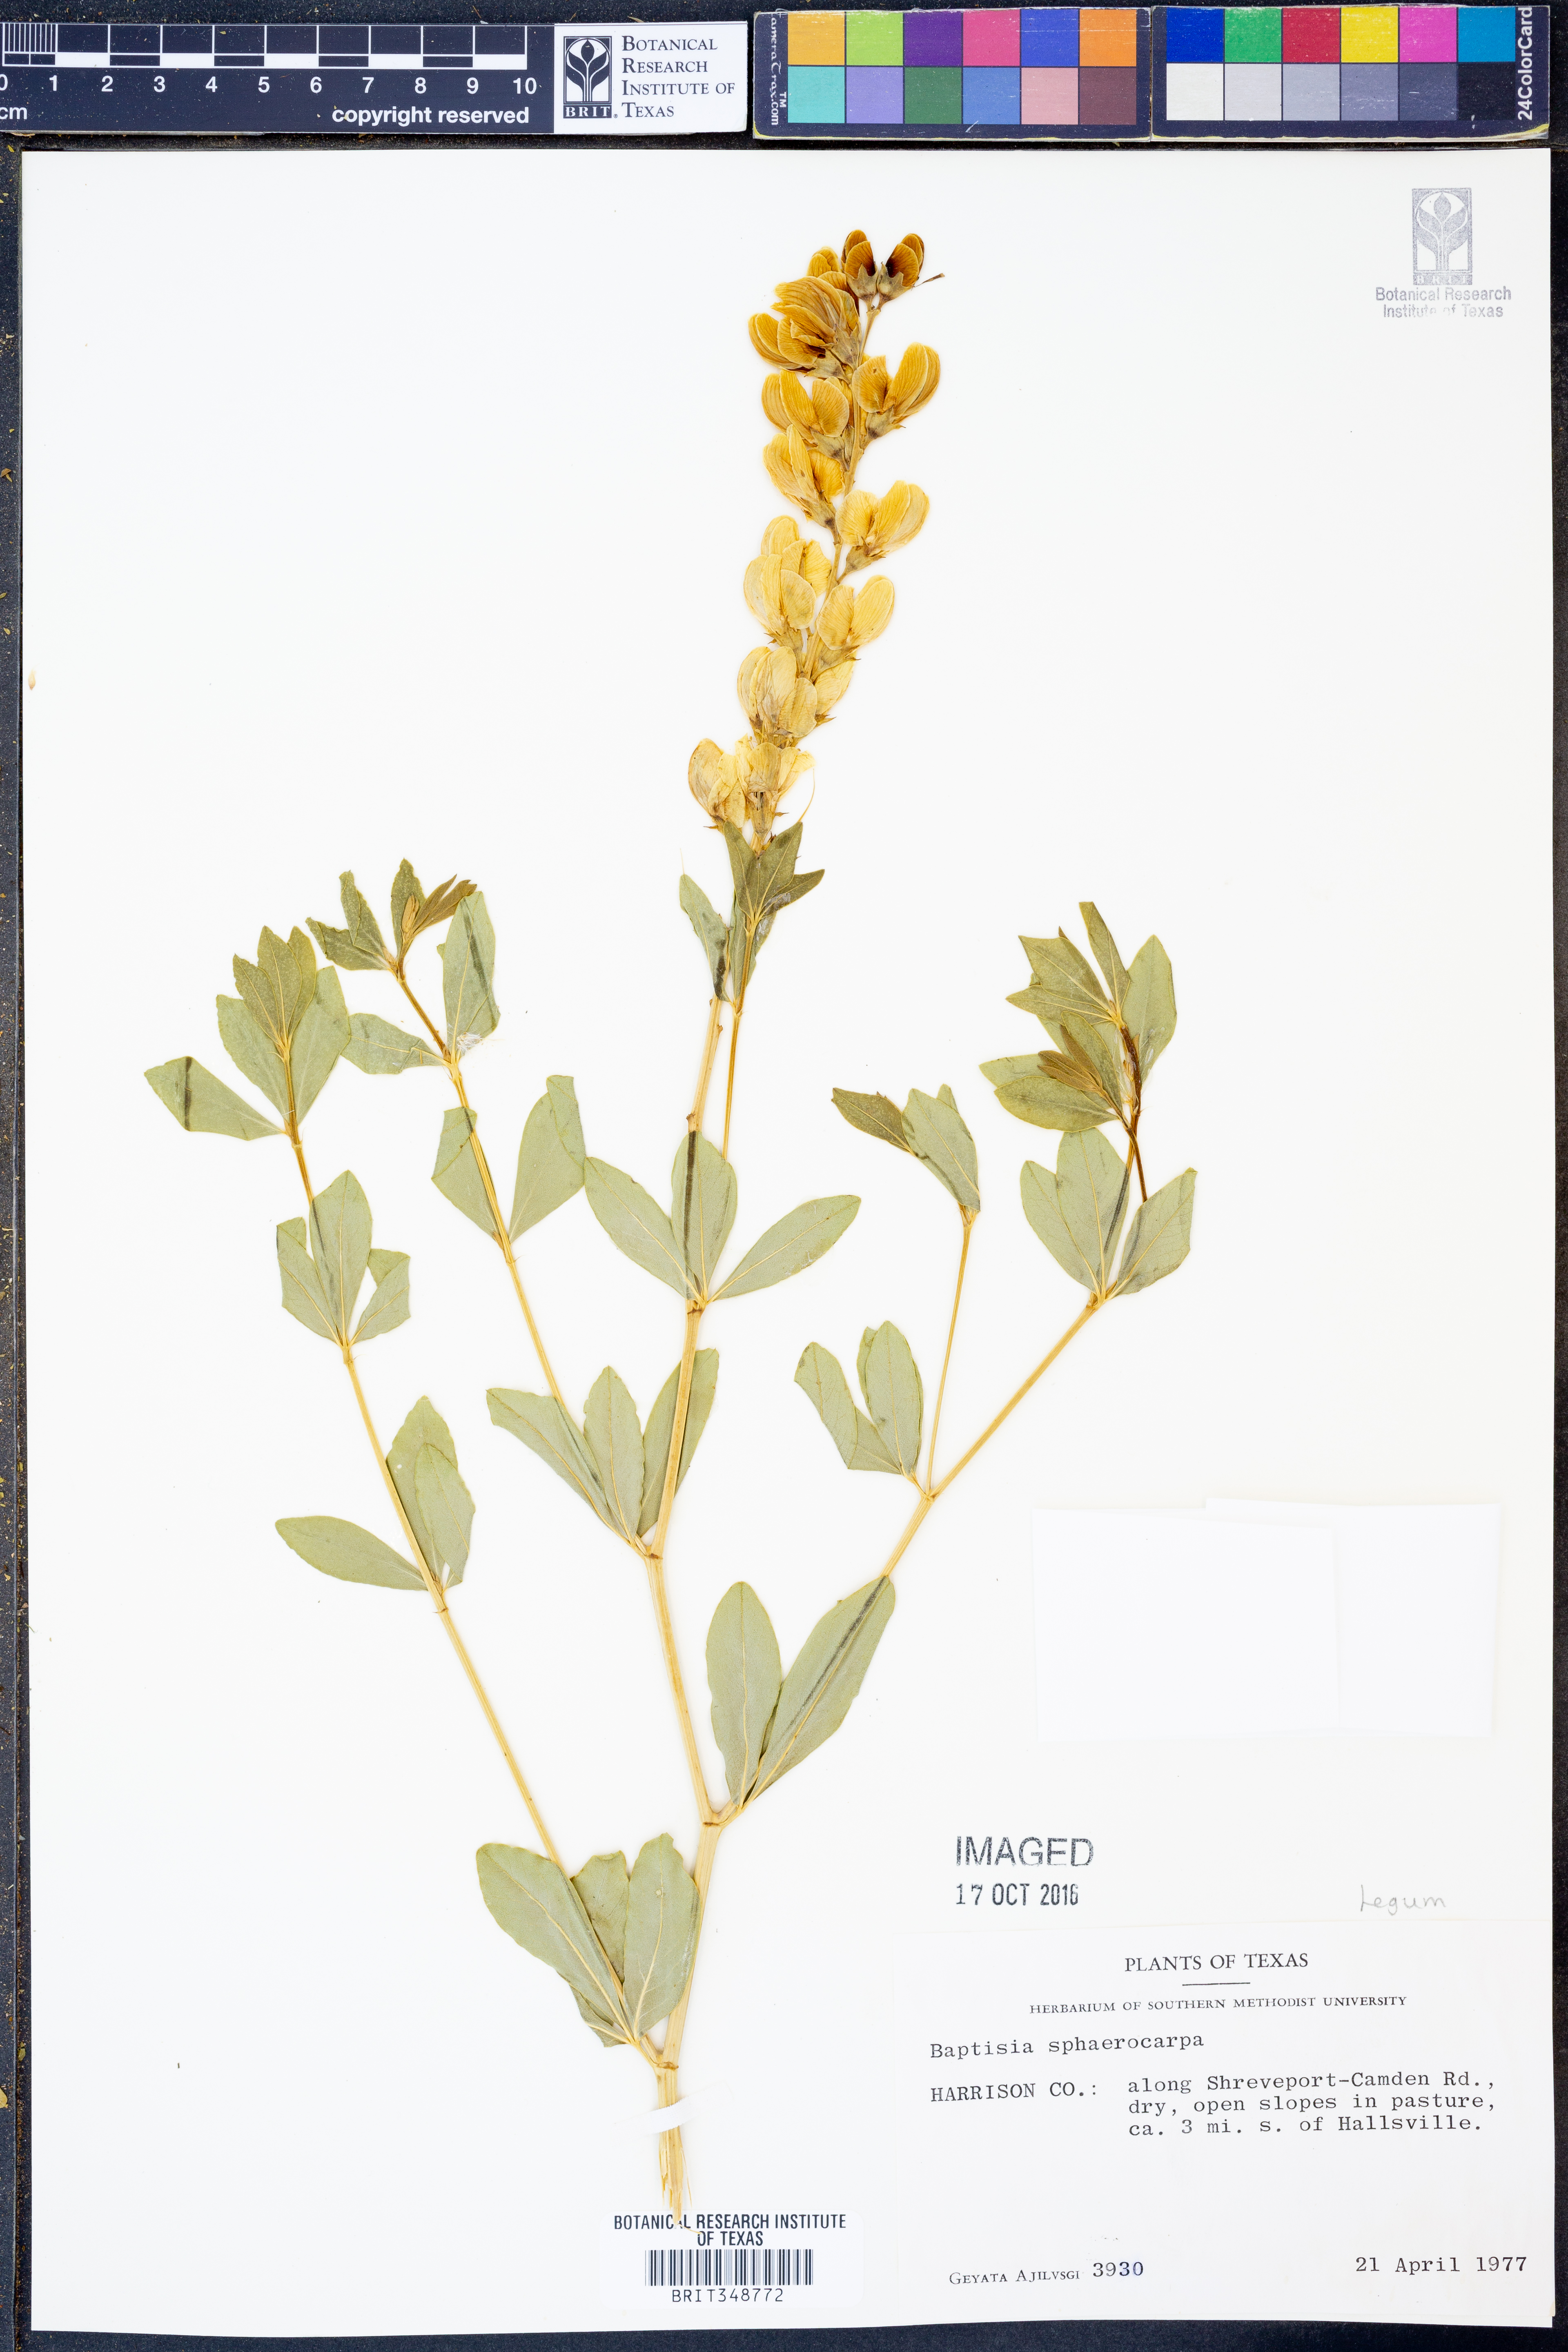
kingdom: Plantae
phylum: Tracheophyta
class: Magnoliopsida
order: Fabales
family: Fabaceae
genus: Baptisia
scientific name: Baptisia sphaerocarpa
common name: Round wild indigo
